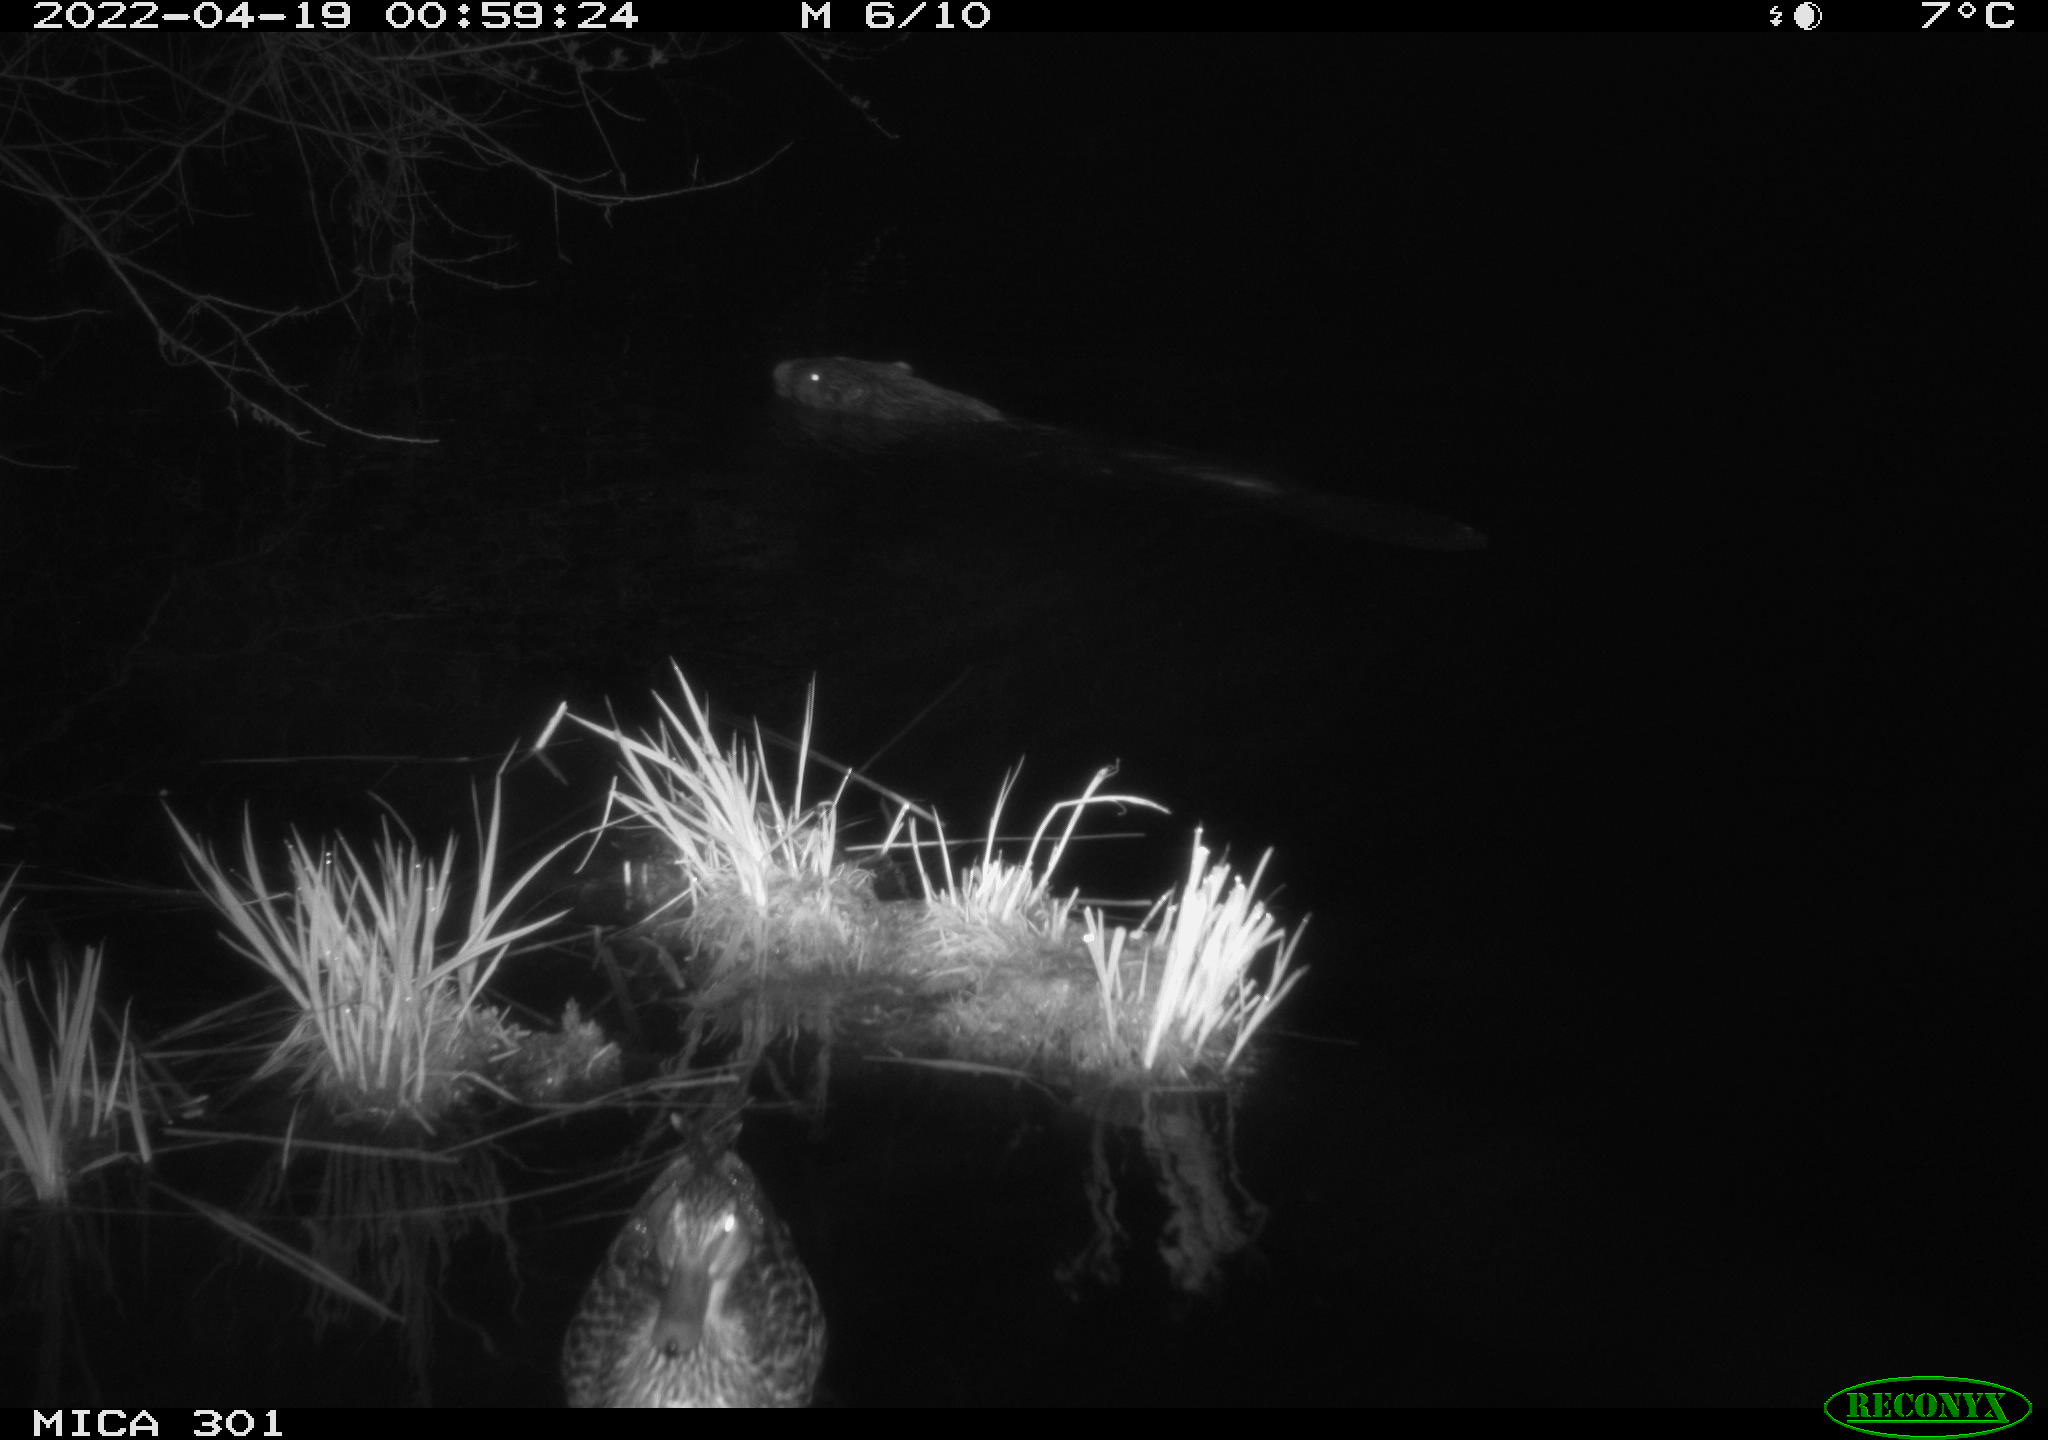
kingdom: Animalia
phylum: Chordata
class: Mammalia
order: Rodentia
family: Castoridae
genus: Castor
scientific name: Castor fiber
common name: Eurasian beaver
